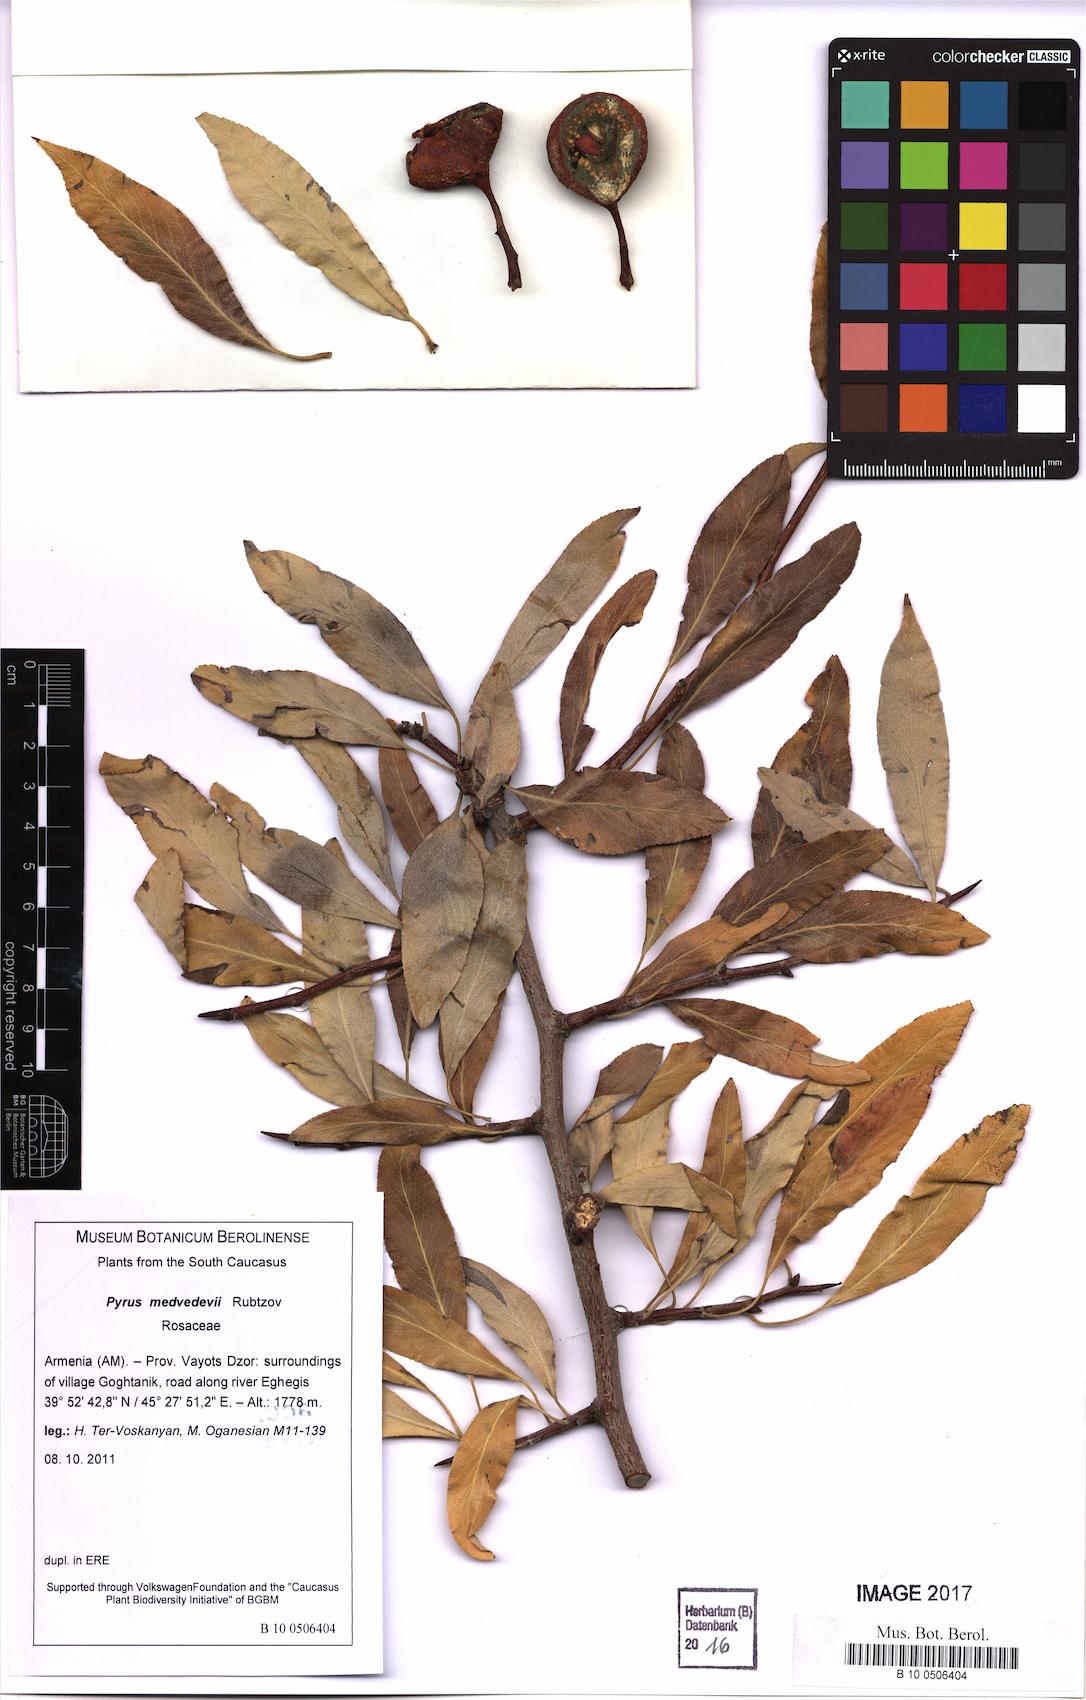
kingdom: Plantae
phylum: Tracheophyta
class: Magnoliopsida
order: Rosales
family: Rosaceae
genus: Pyrus
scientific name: Pyrus medvedevii
